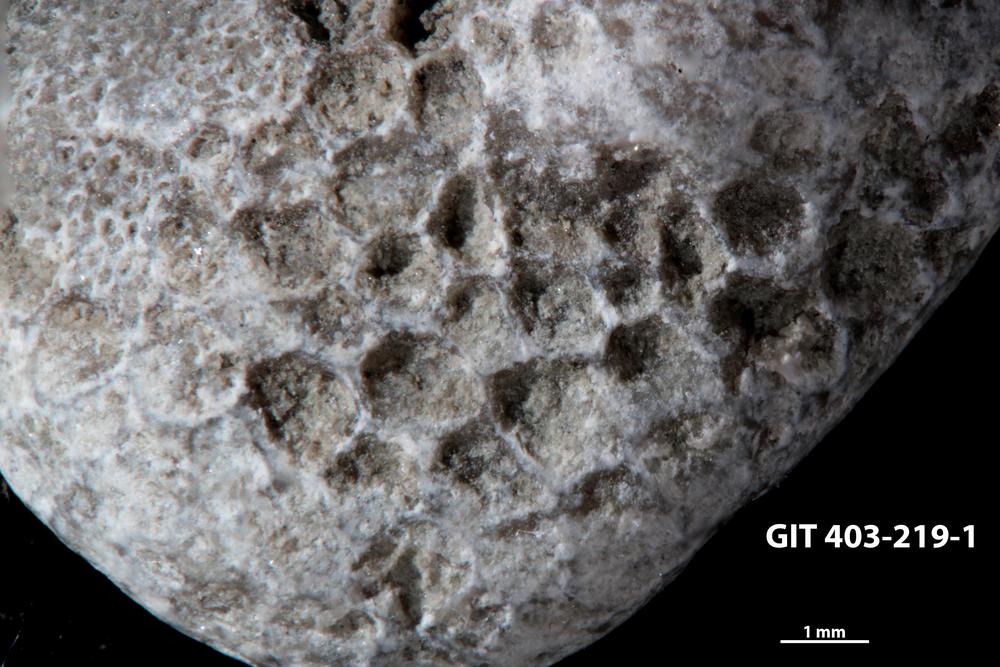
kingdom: Animalia
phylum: Cnidaria
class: Anthozoa
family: Favositidae
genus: Favosites
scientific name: Favosites
